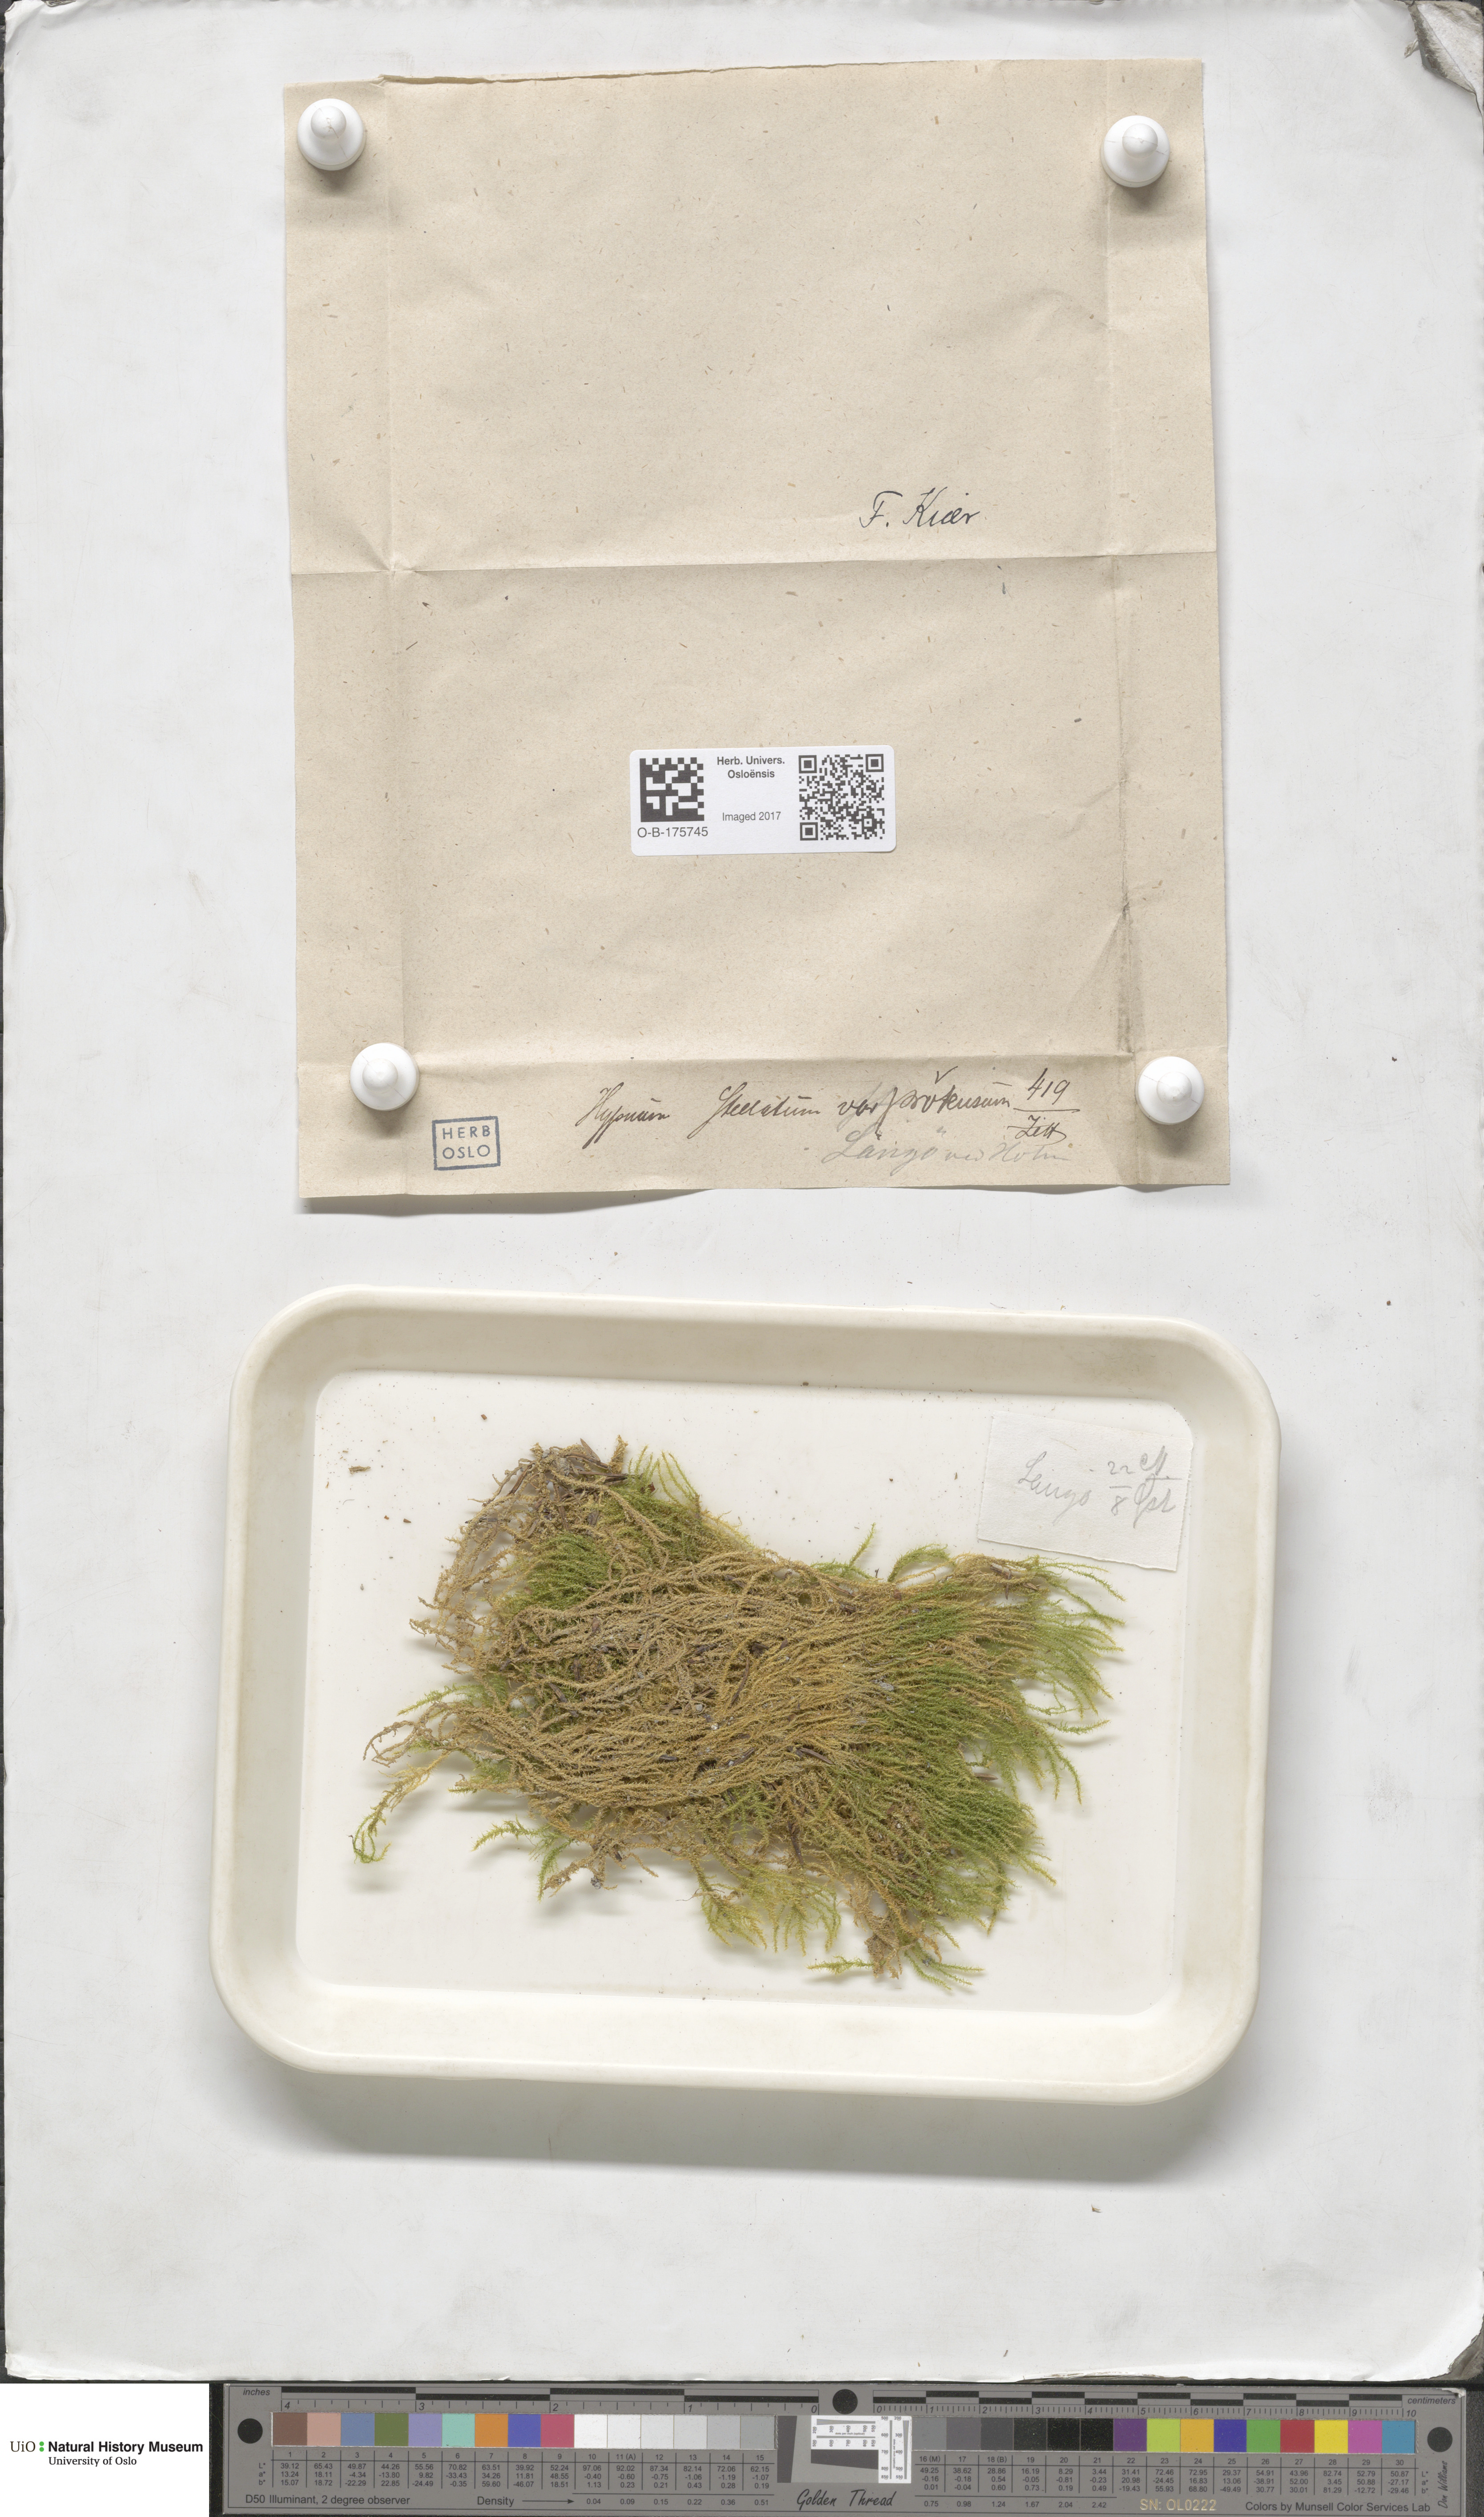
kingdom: Plantae
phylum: Bryophyta
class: Bryopsida
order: Hypnales
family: Amblystegiaceae
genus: Campylium
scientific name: Campylium stellatum
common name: Yellow starry fen moss
